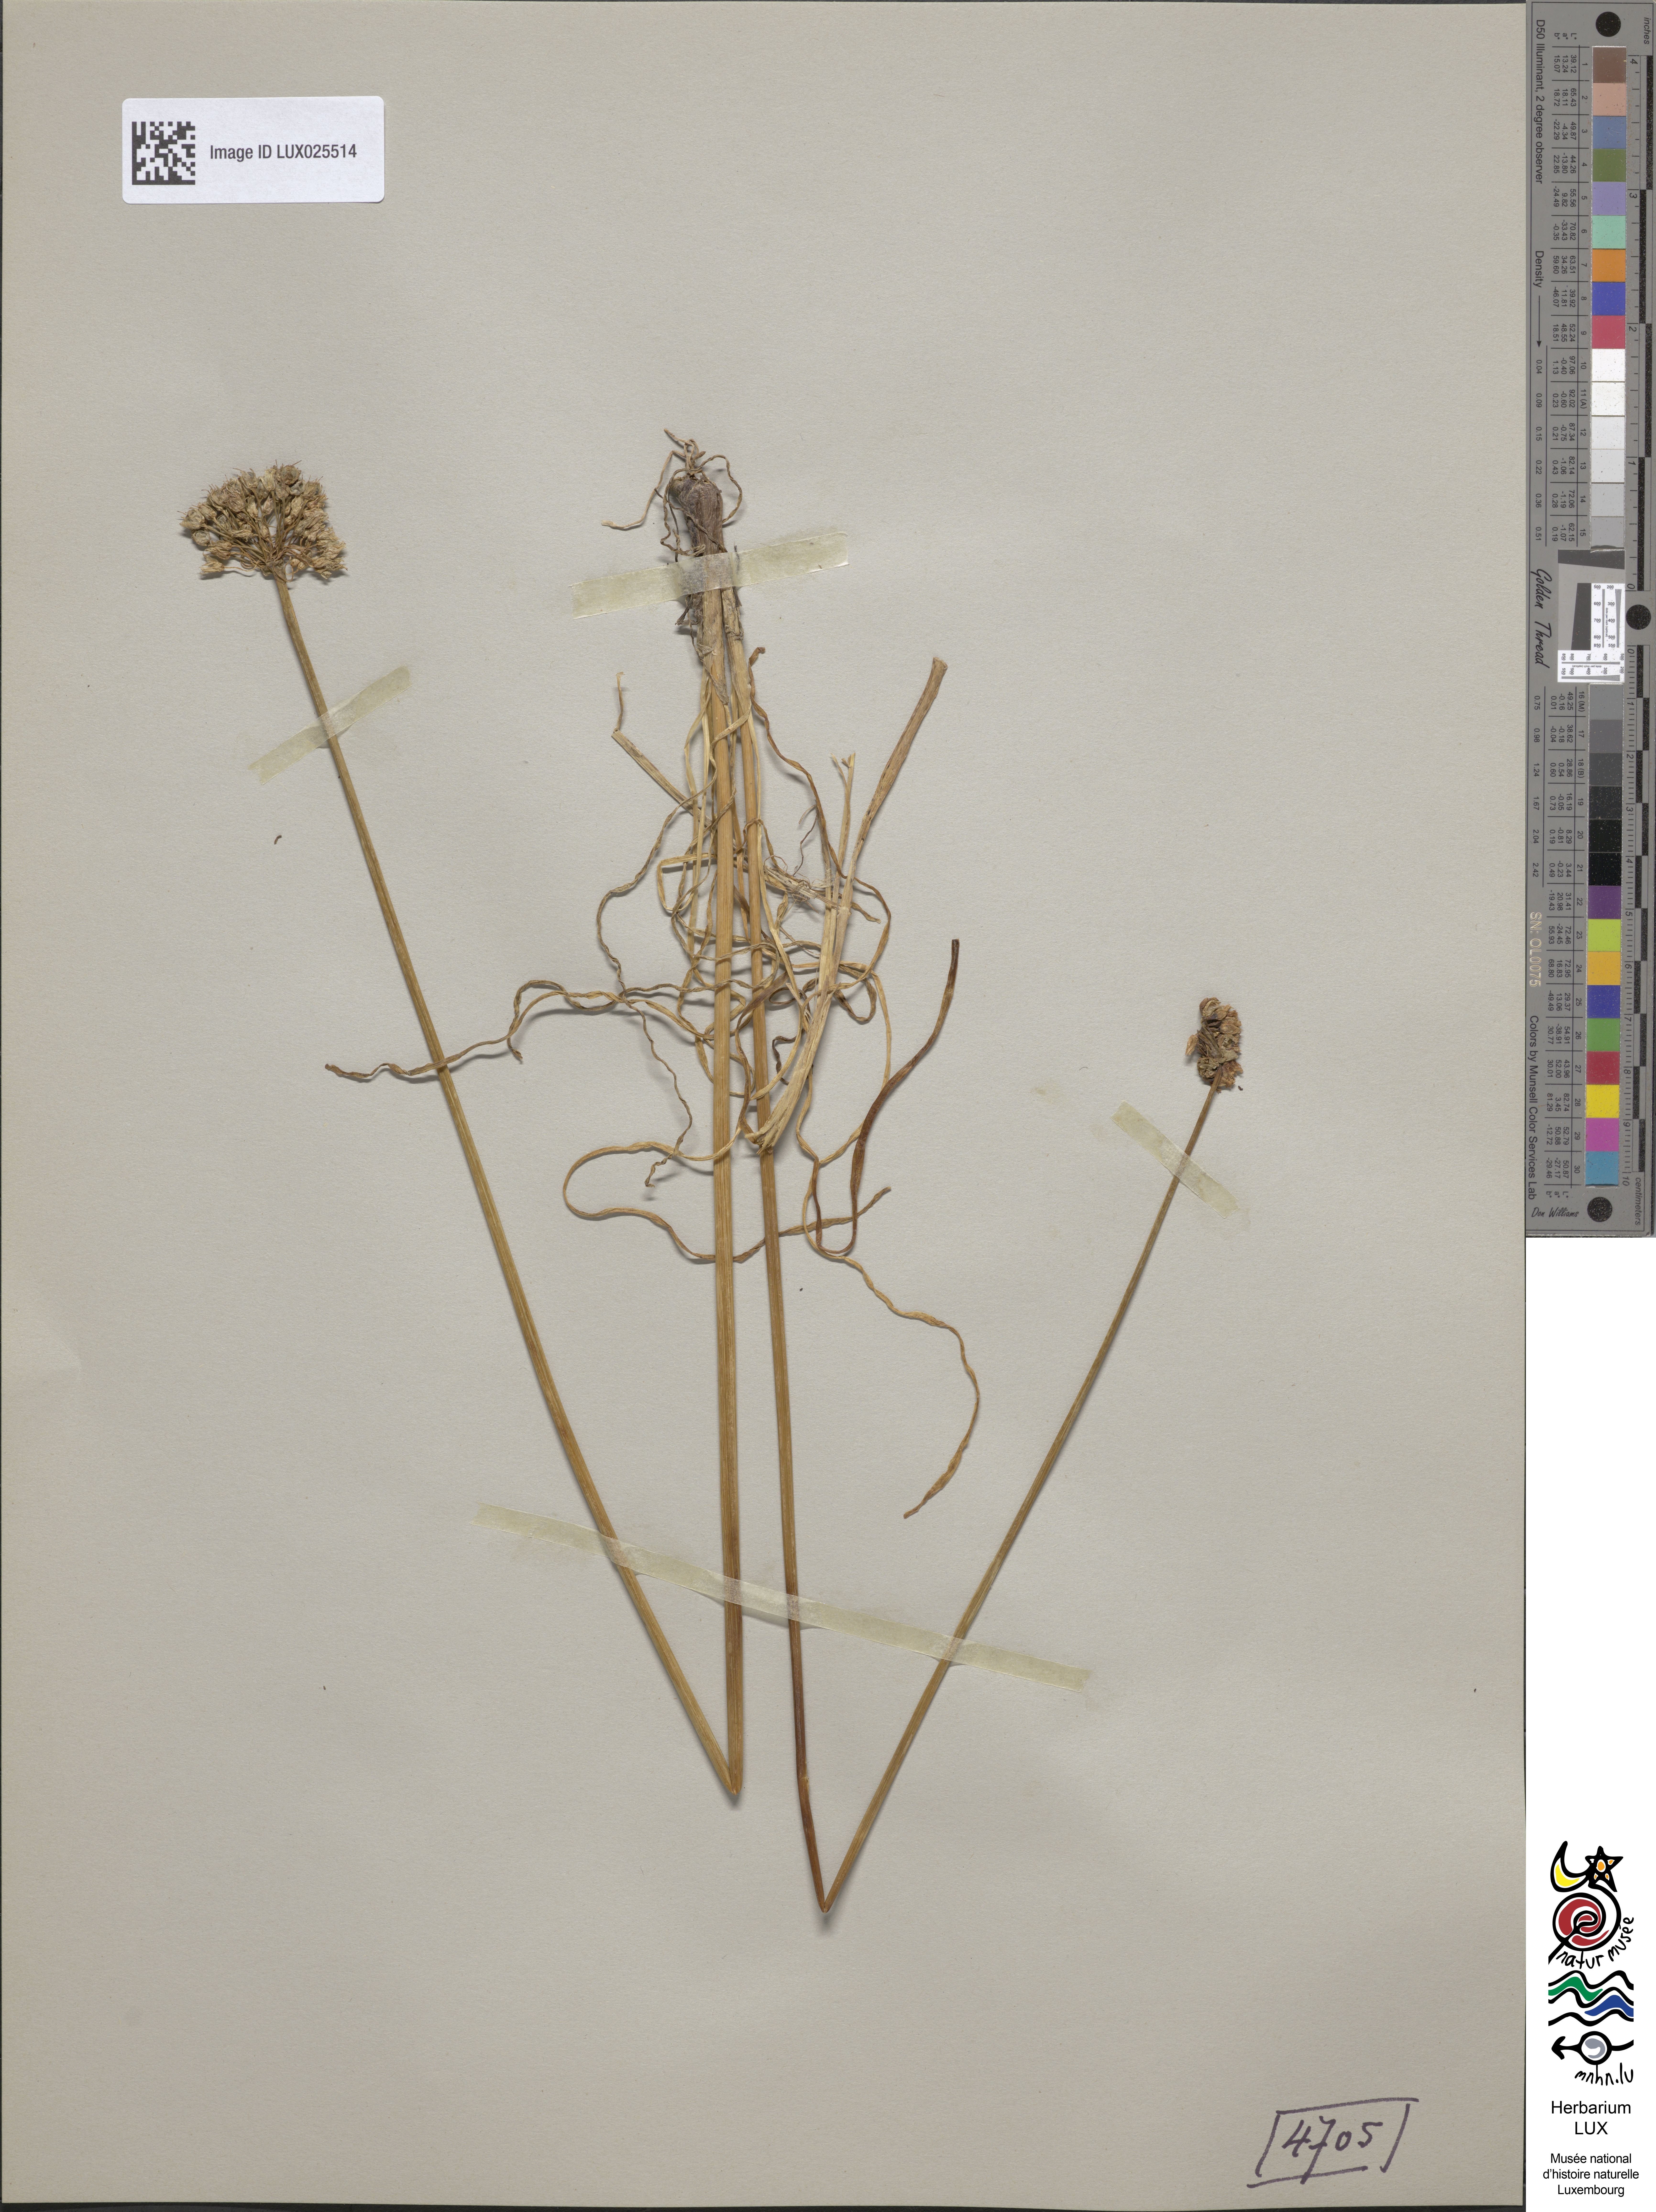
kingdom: Plantae
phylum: Tracheophyta
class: Liliopsida
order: Asparagales
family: Amaryllidaceae
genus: Allium
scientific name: Allium angulosum
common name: Mouse garlic
